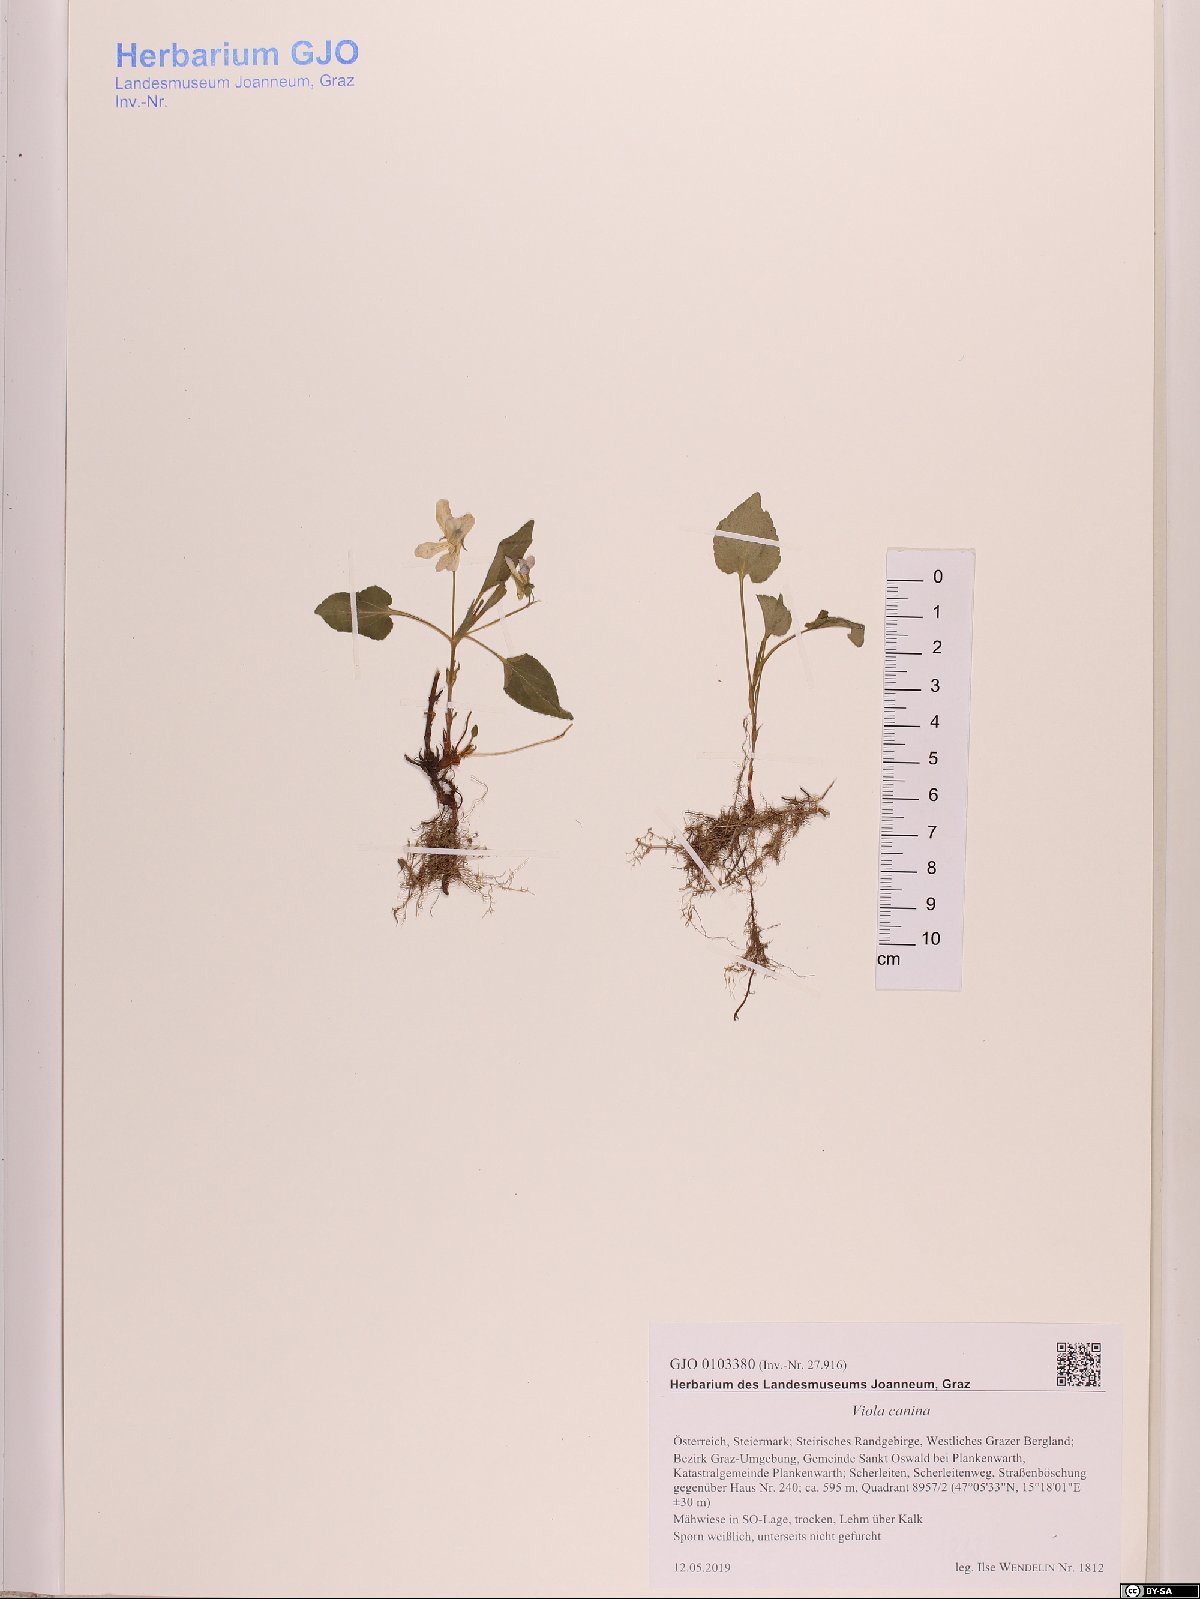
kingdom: Plantae
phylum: Tracheophyta
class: Magnoliopsida
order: Malpighiales
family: Violaceae
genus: Viola
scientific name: Viola canina
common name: Heath dog-violet
